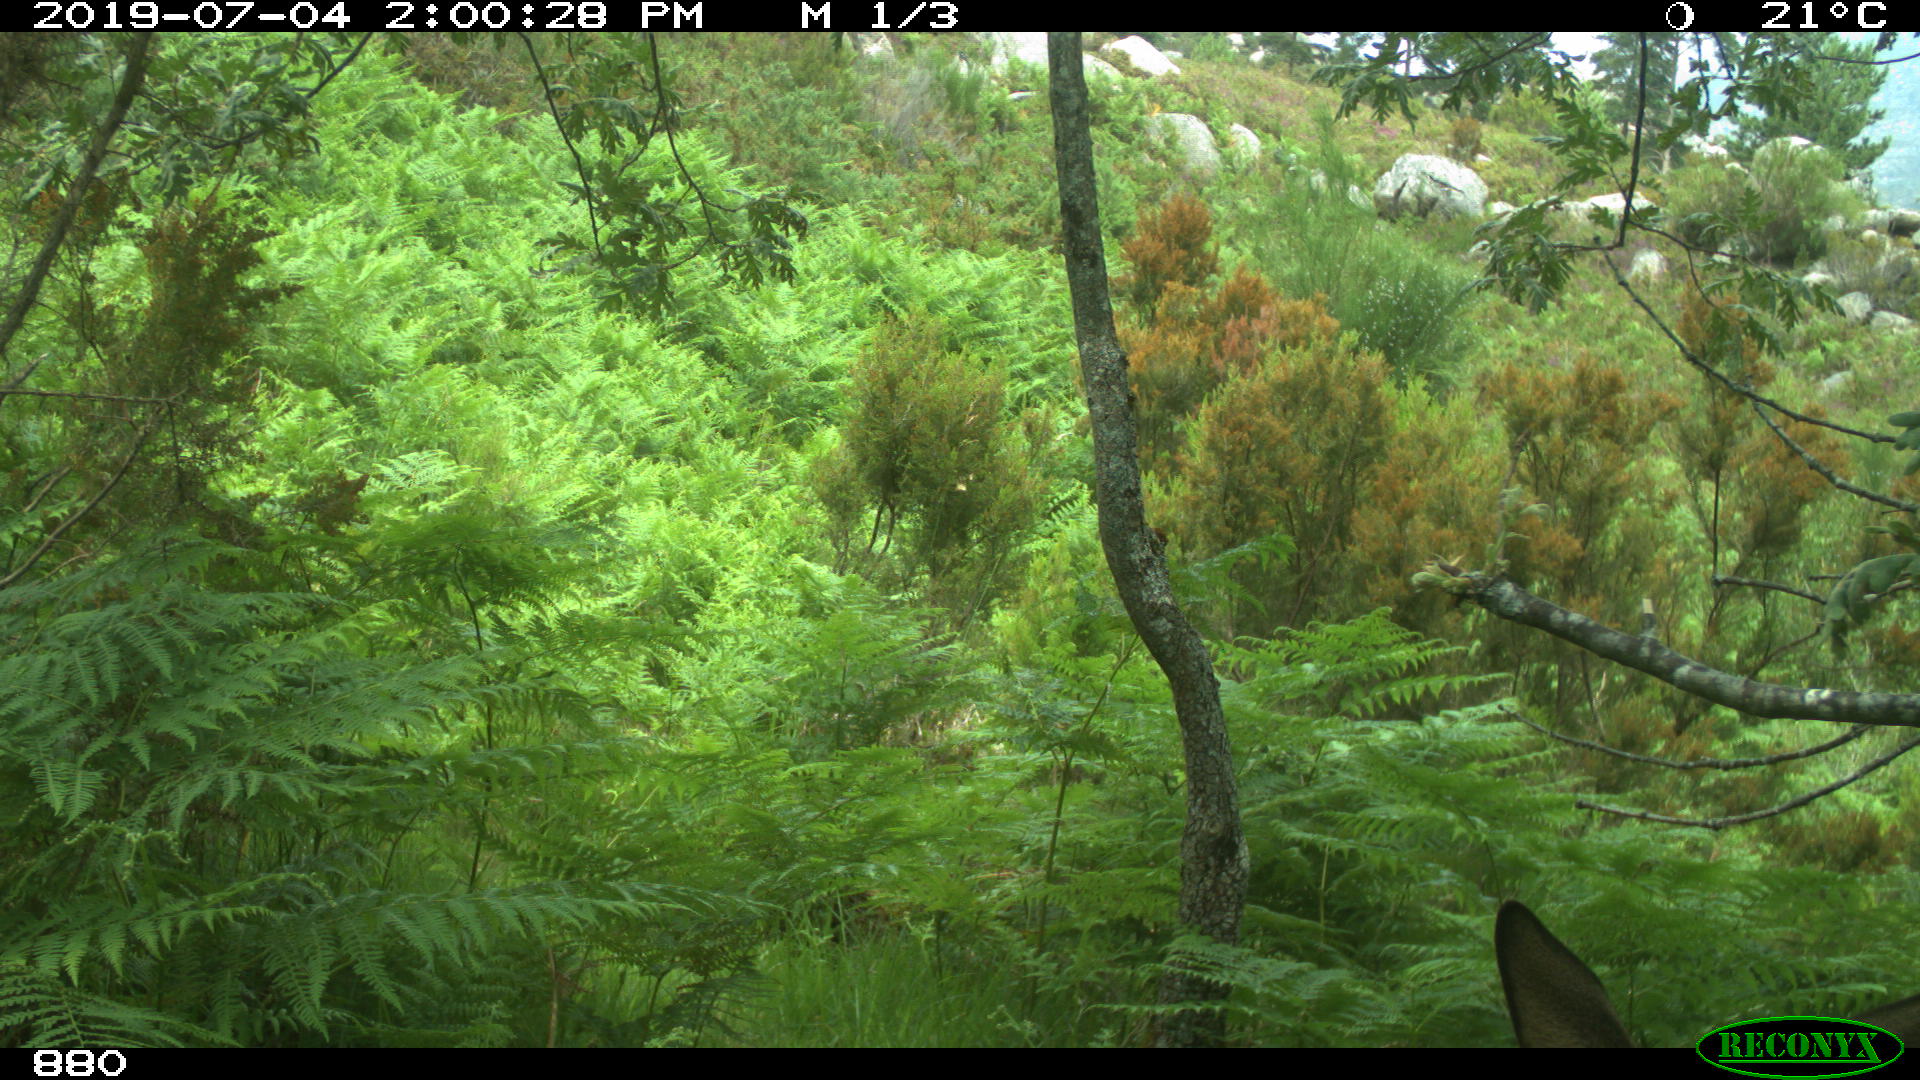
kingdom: Animalia
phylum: Chordata
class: Mammalia
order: Artiodactyla
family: Cervidae
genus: Capreolus
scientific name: Capreolus capreolus
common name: Western roe deer
